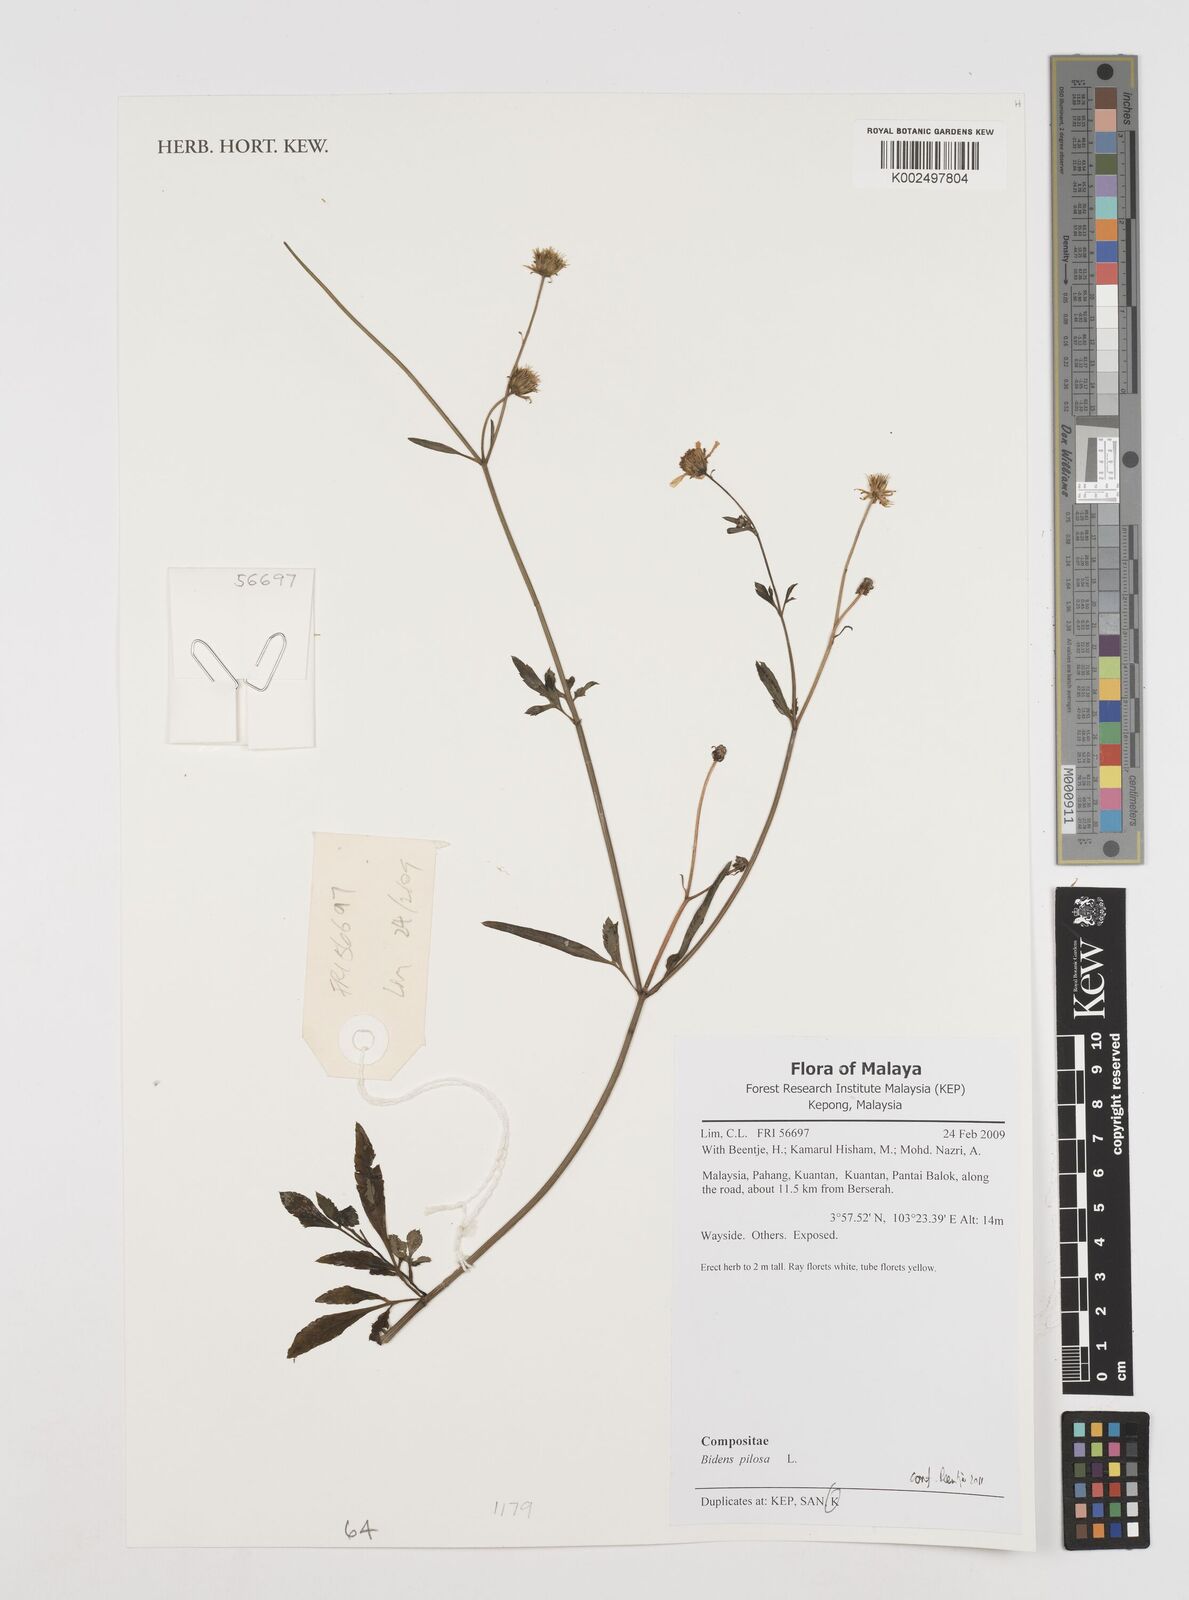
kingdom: Plantae
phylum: Tracheophyta
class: Magnoliopsida
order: Asterales
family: Asteraceae
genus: Bidens
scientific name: Bidens pilosa
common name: Black-jack
